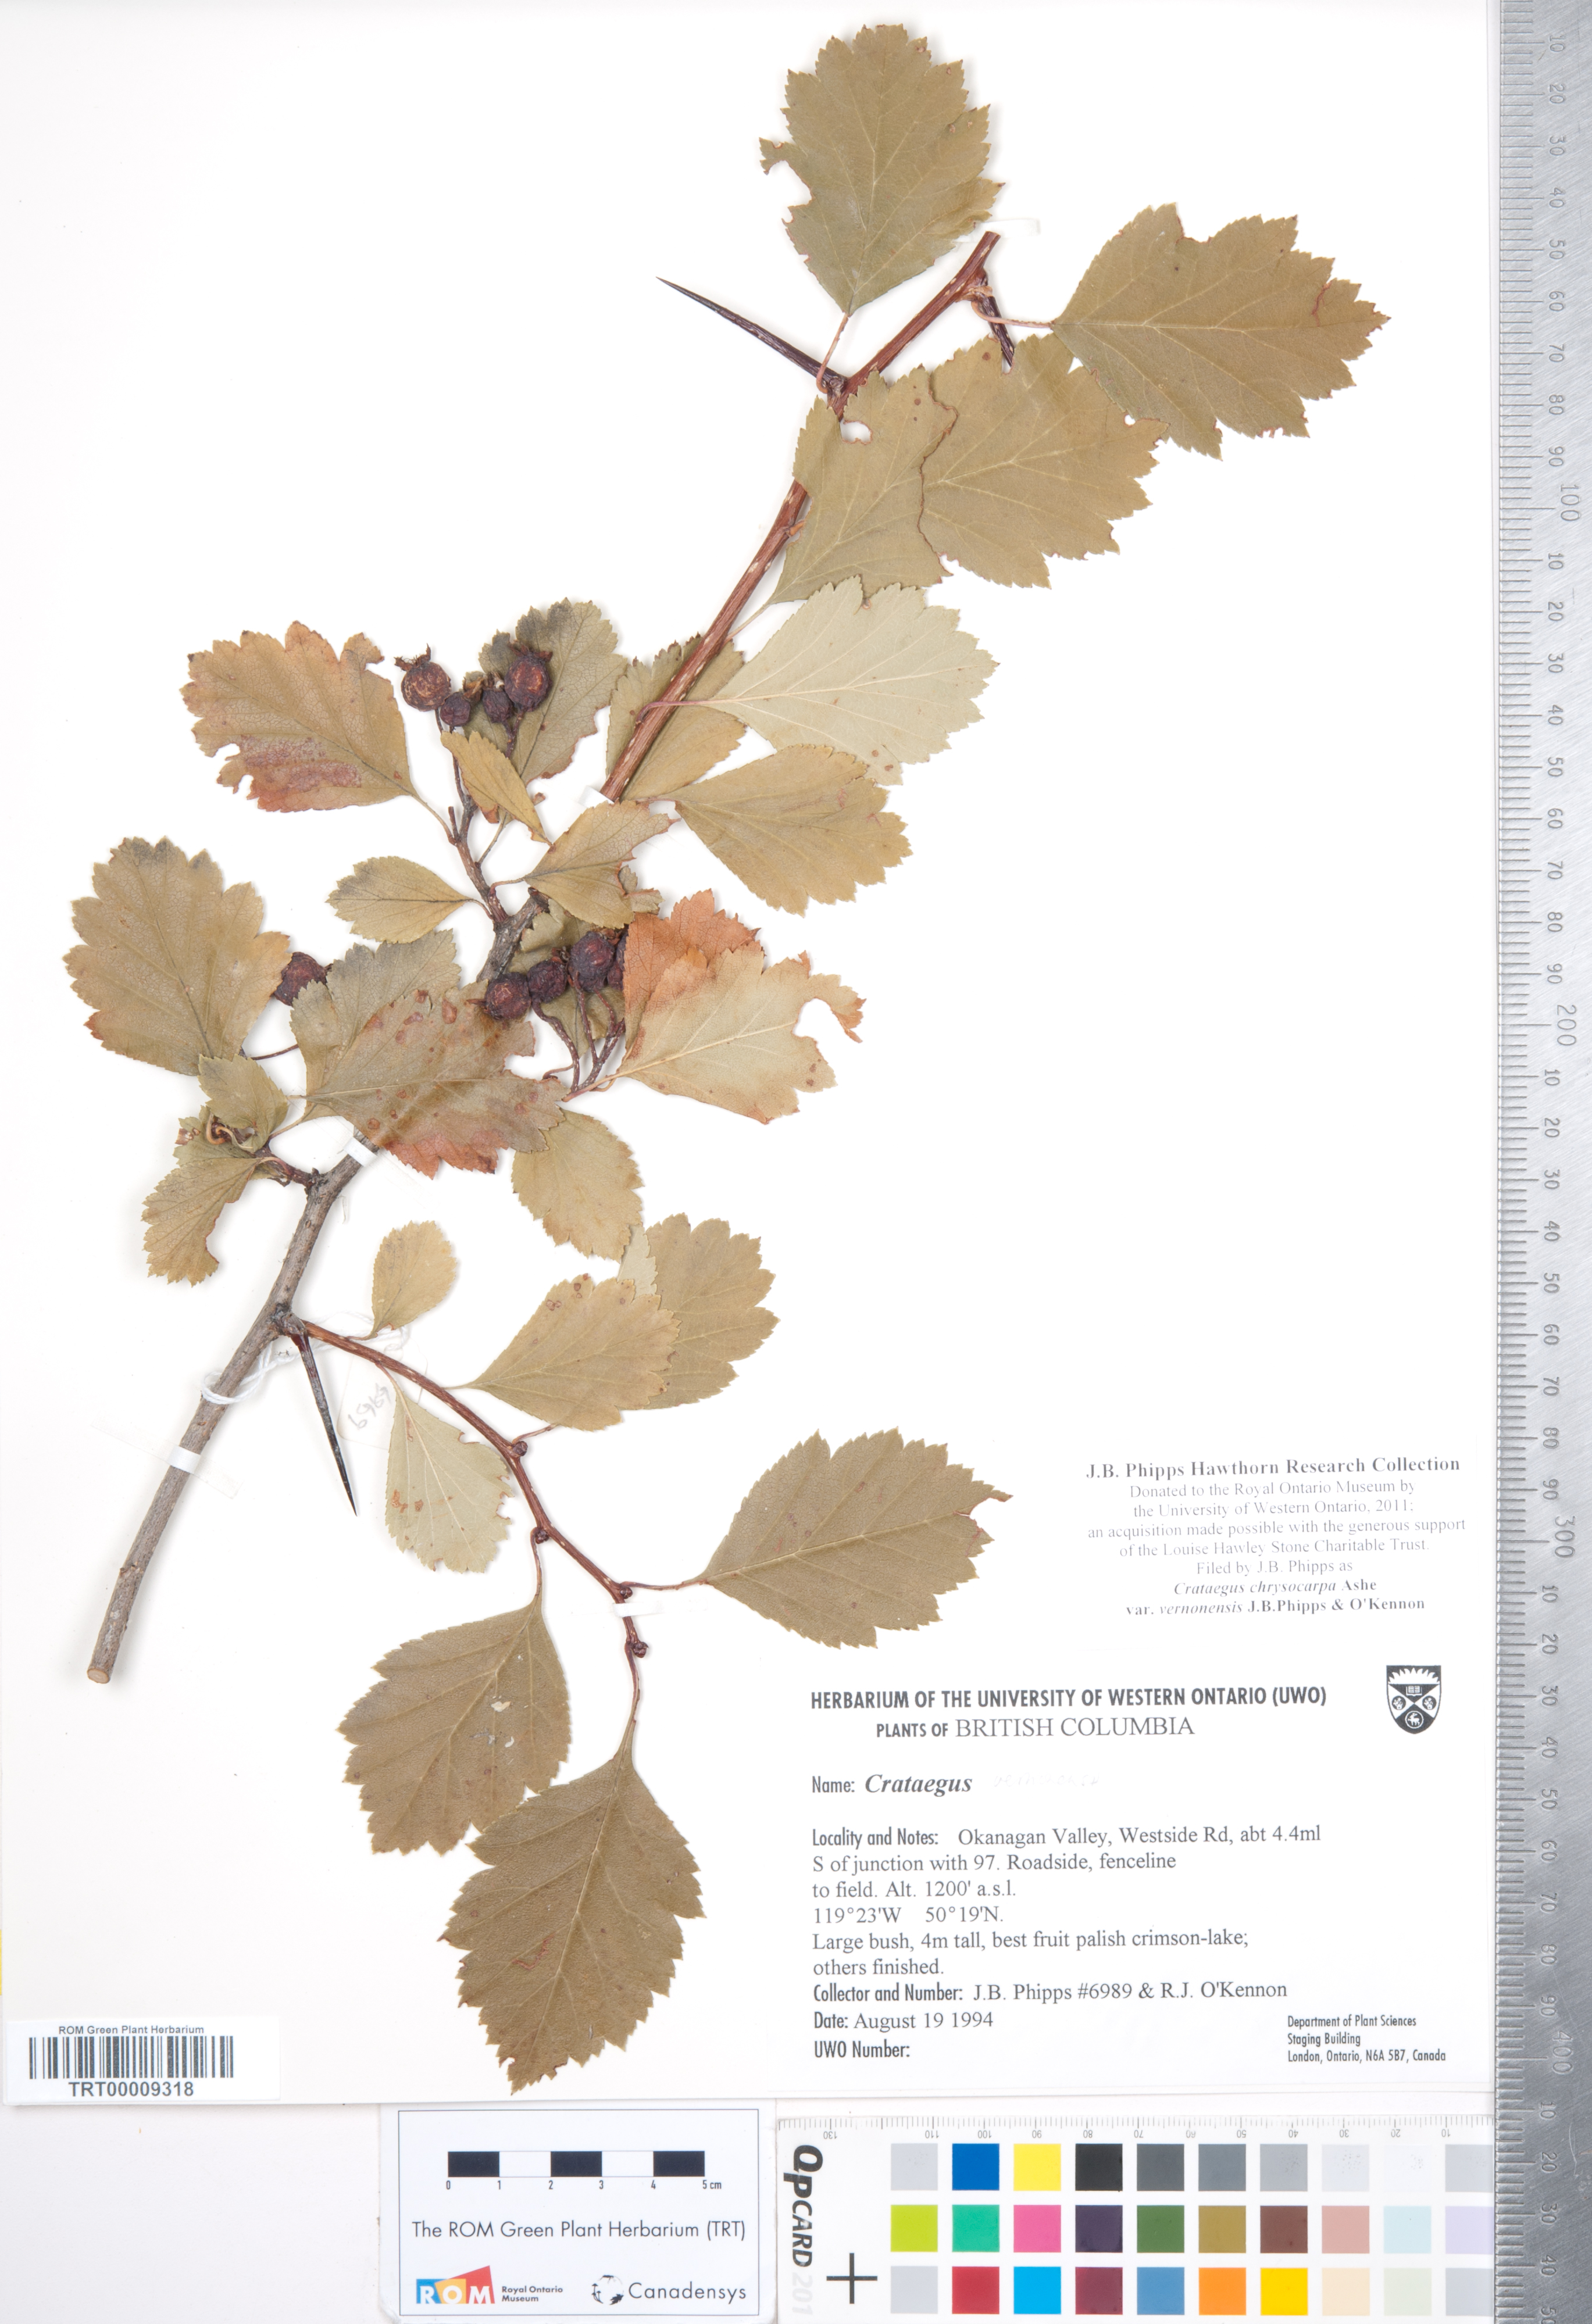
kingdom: Plantae
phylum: Tracheophyta
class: Magnoliopsida
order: Rosales
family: Rosaceae
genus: Crataegus
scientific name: Crataegus chrysocarpa
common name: Fire-berry hawthorn
